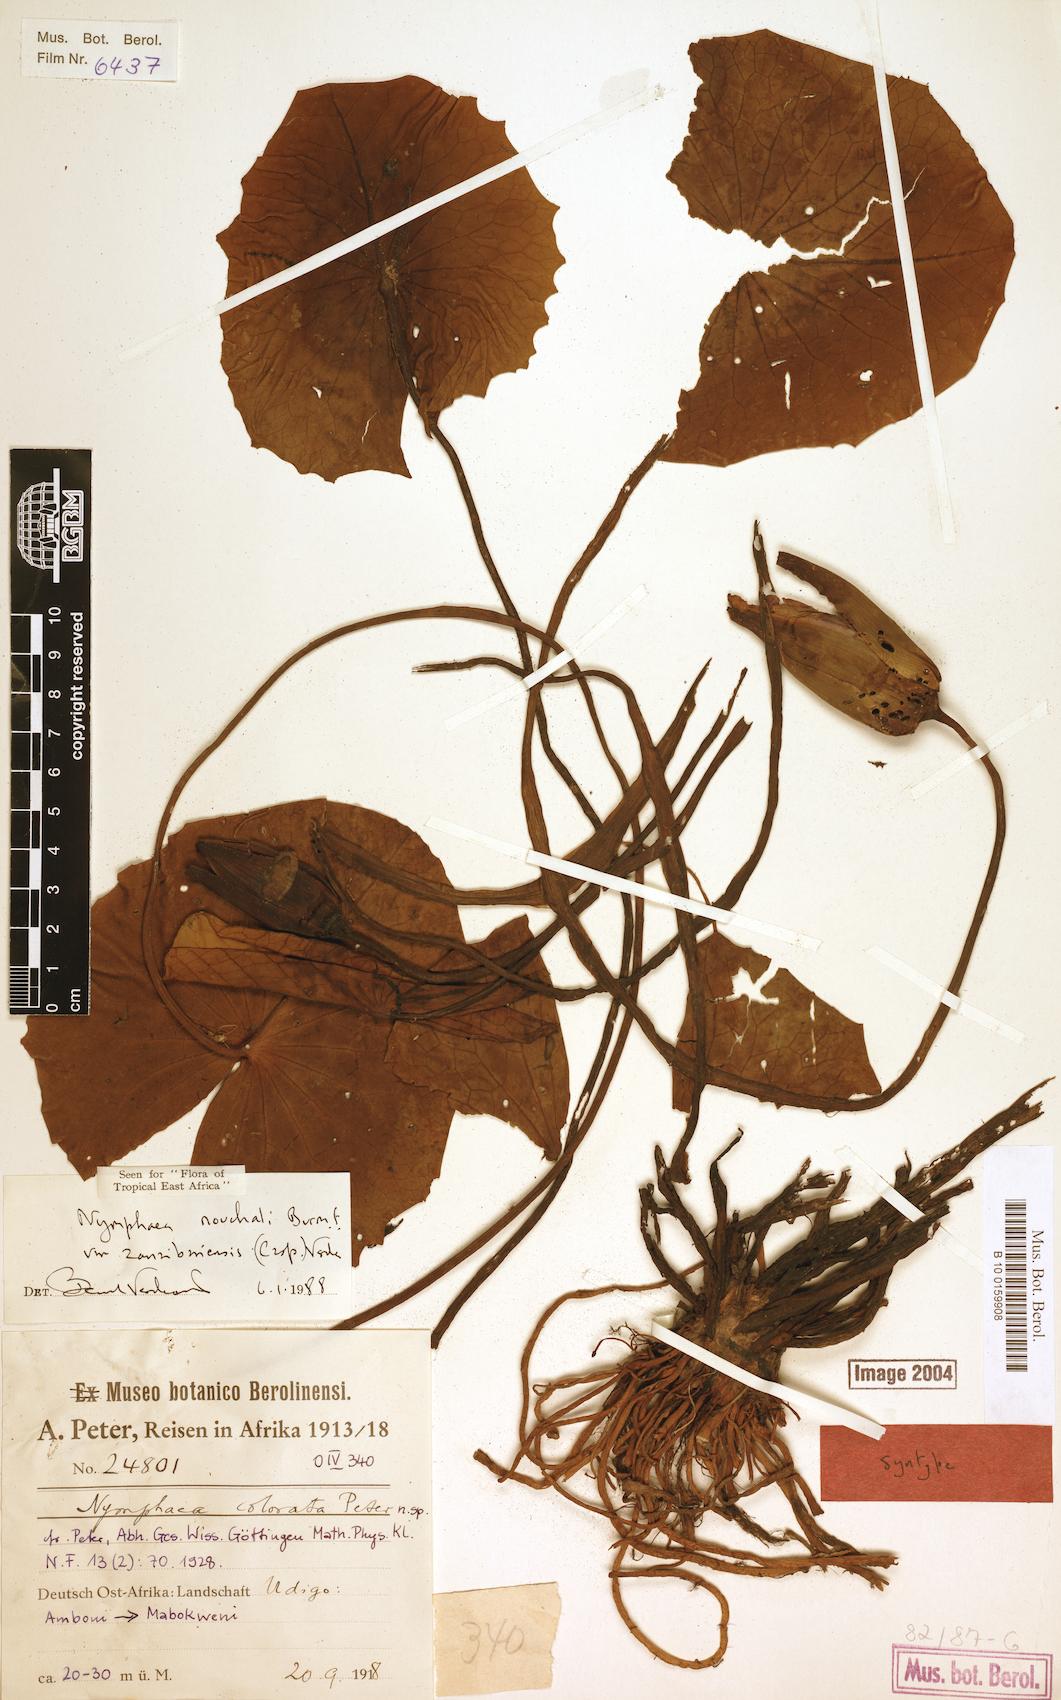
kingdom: Plantae
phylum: Tracheophyta
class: Magnoliopsida
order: Nymphaeales
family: Nymphaeaceae
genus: Nymphaea
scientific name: Nymphaea nouchali
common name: Blue lotus
